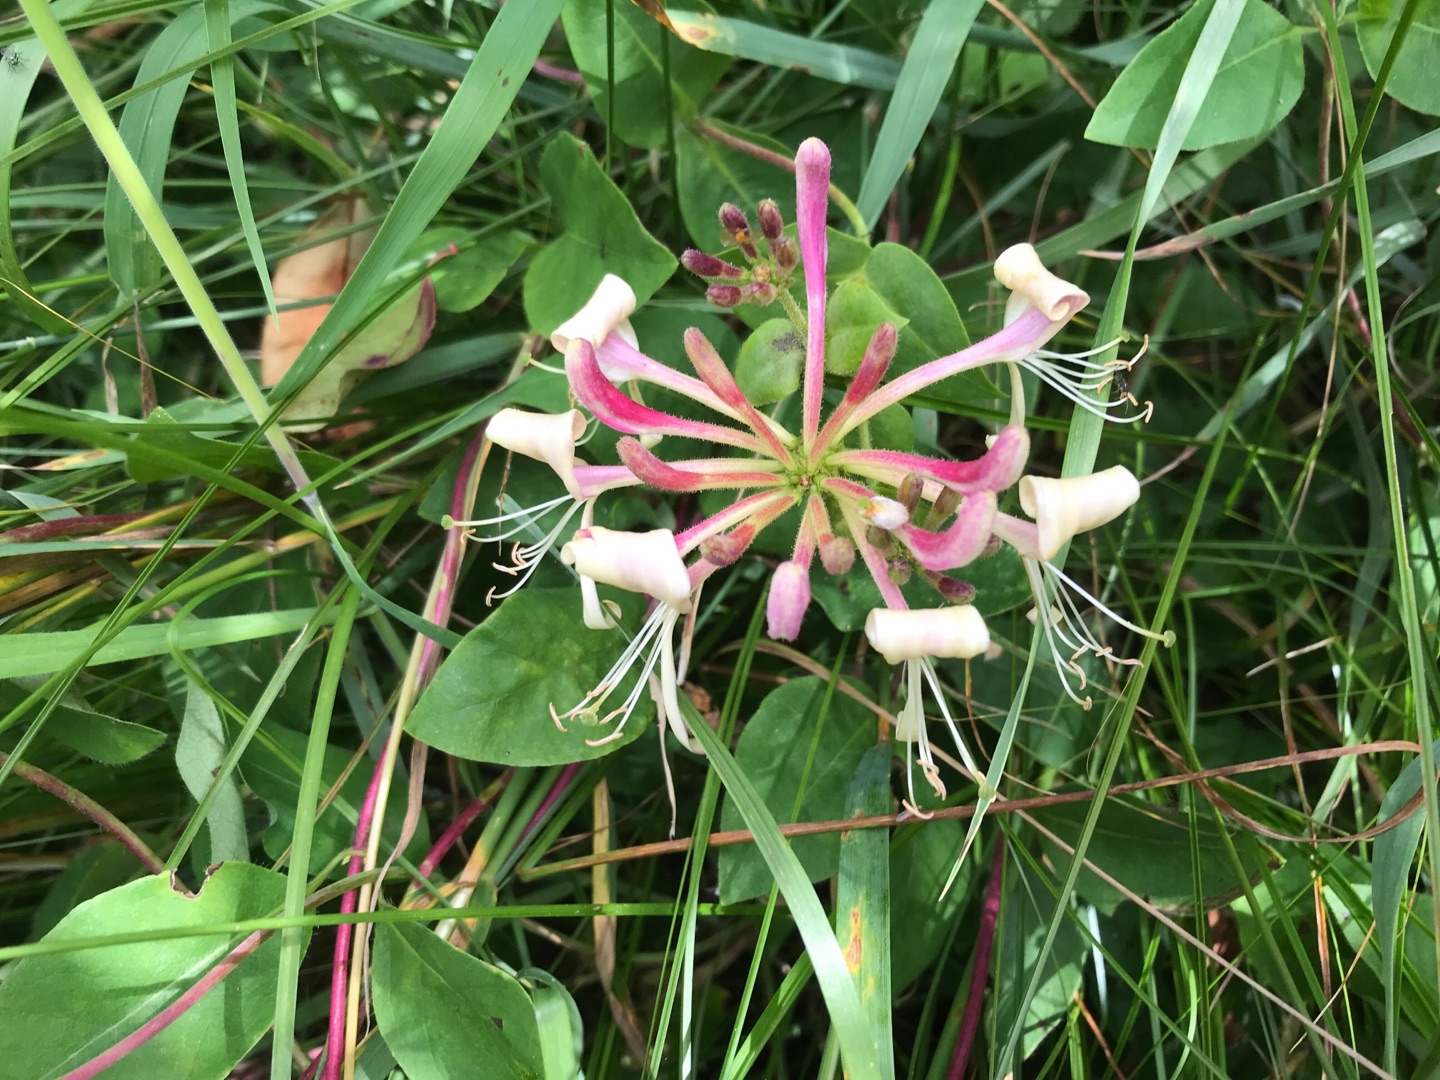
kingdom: Plantae
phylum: Tracheophyta
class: Magnoliopsida
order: Dipsacales
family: Caprifoliaceae
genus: Lonicera
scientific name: Lonicera periclymenum
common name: Almindelig gedeblad
